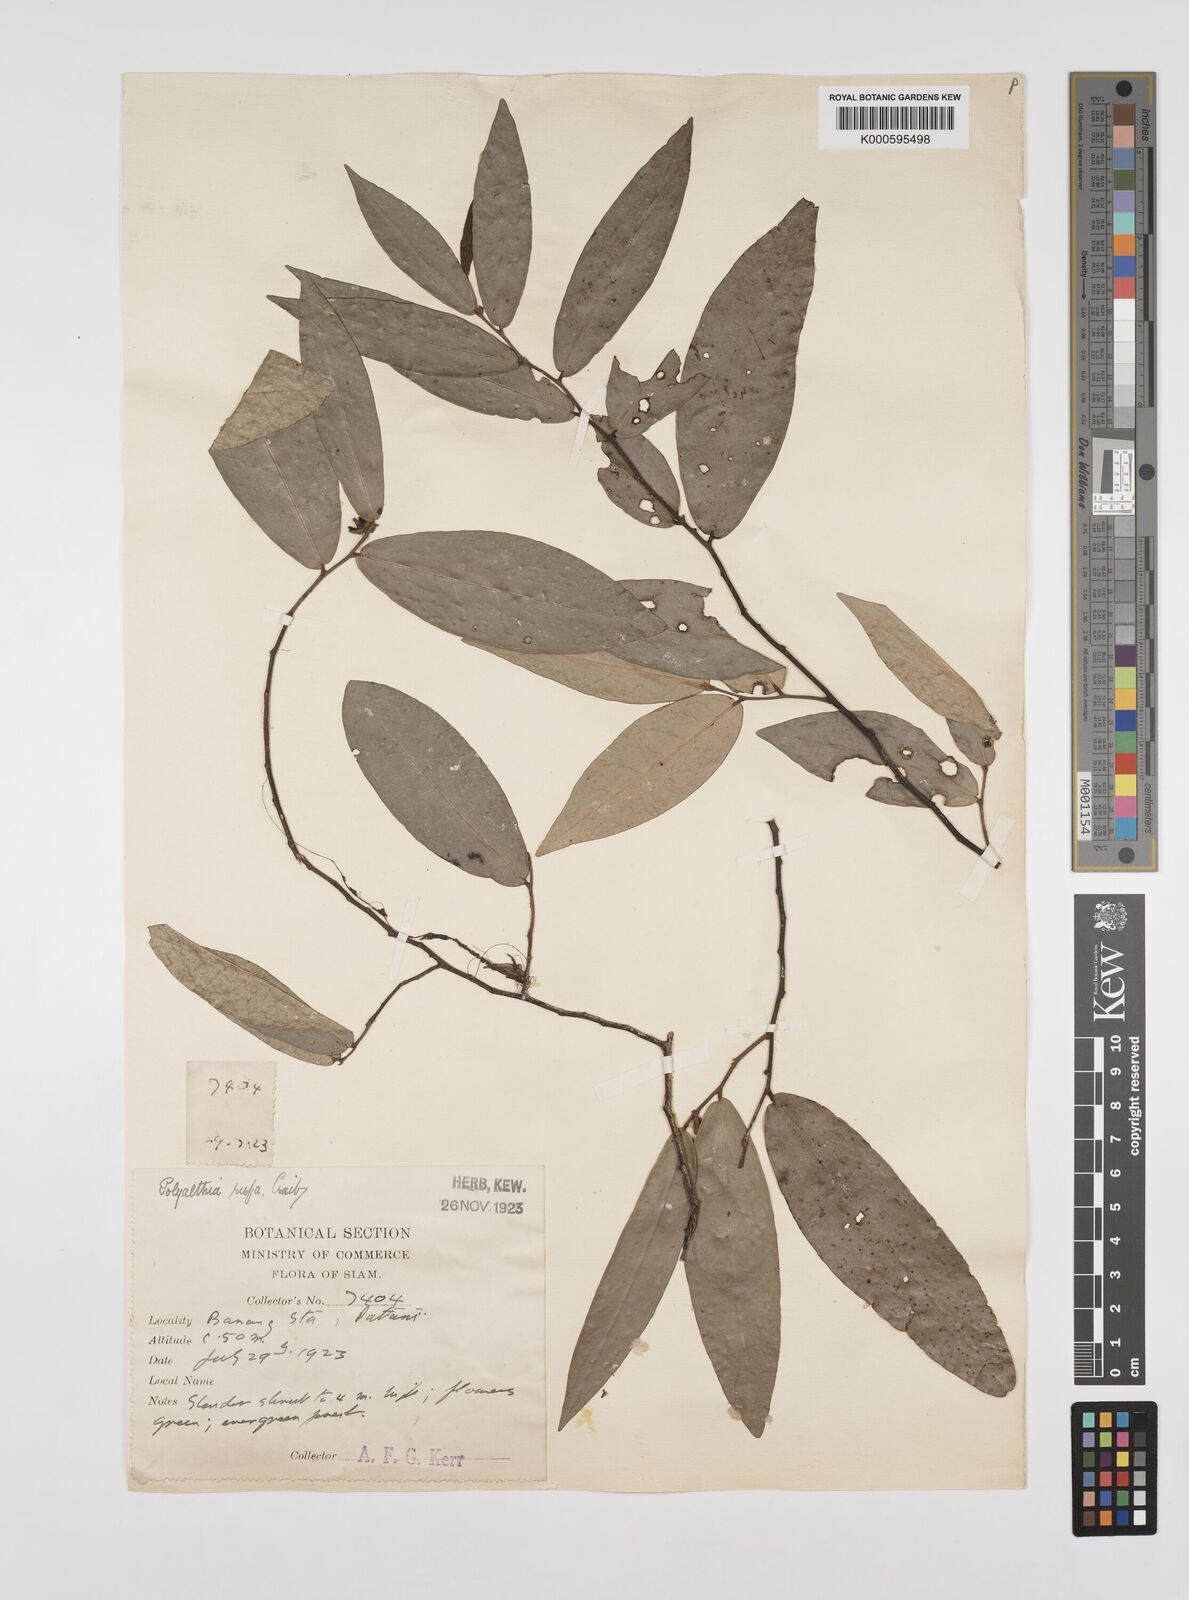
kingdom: Plantae
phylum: Tracheophyta
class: Magnoliopsida
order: Magnoliales
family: Annonaceae
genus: Polyalthia
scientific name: Polyalthia parviflora
